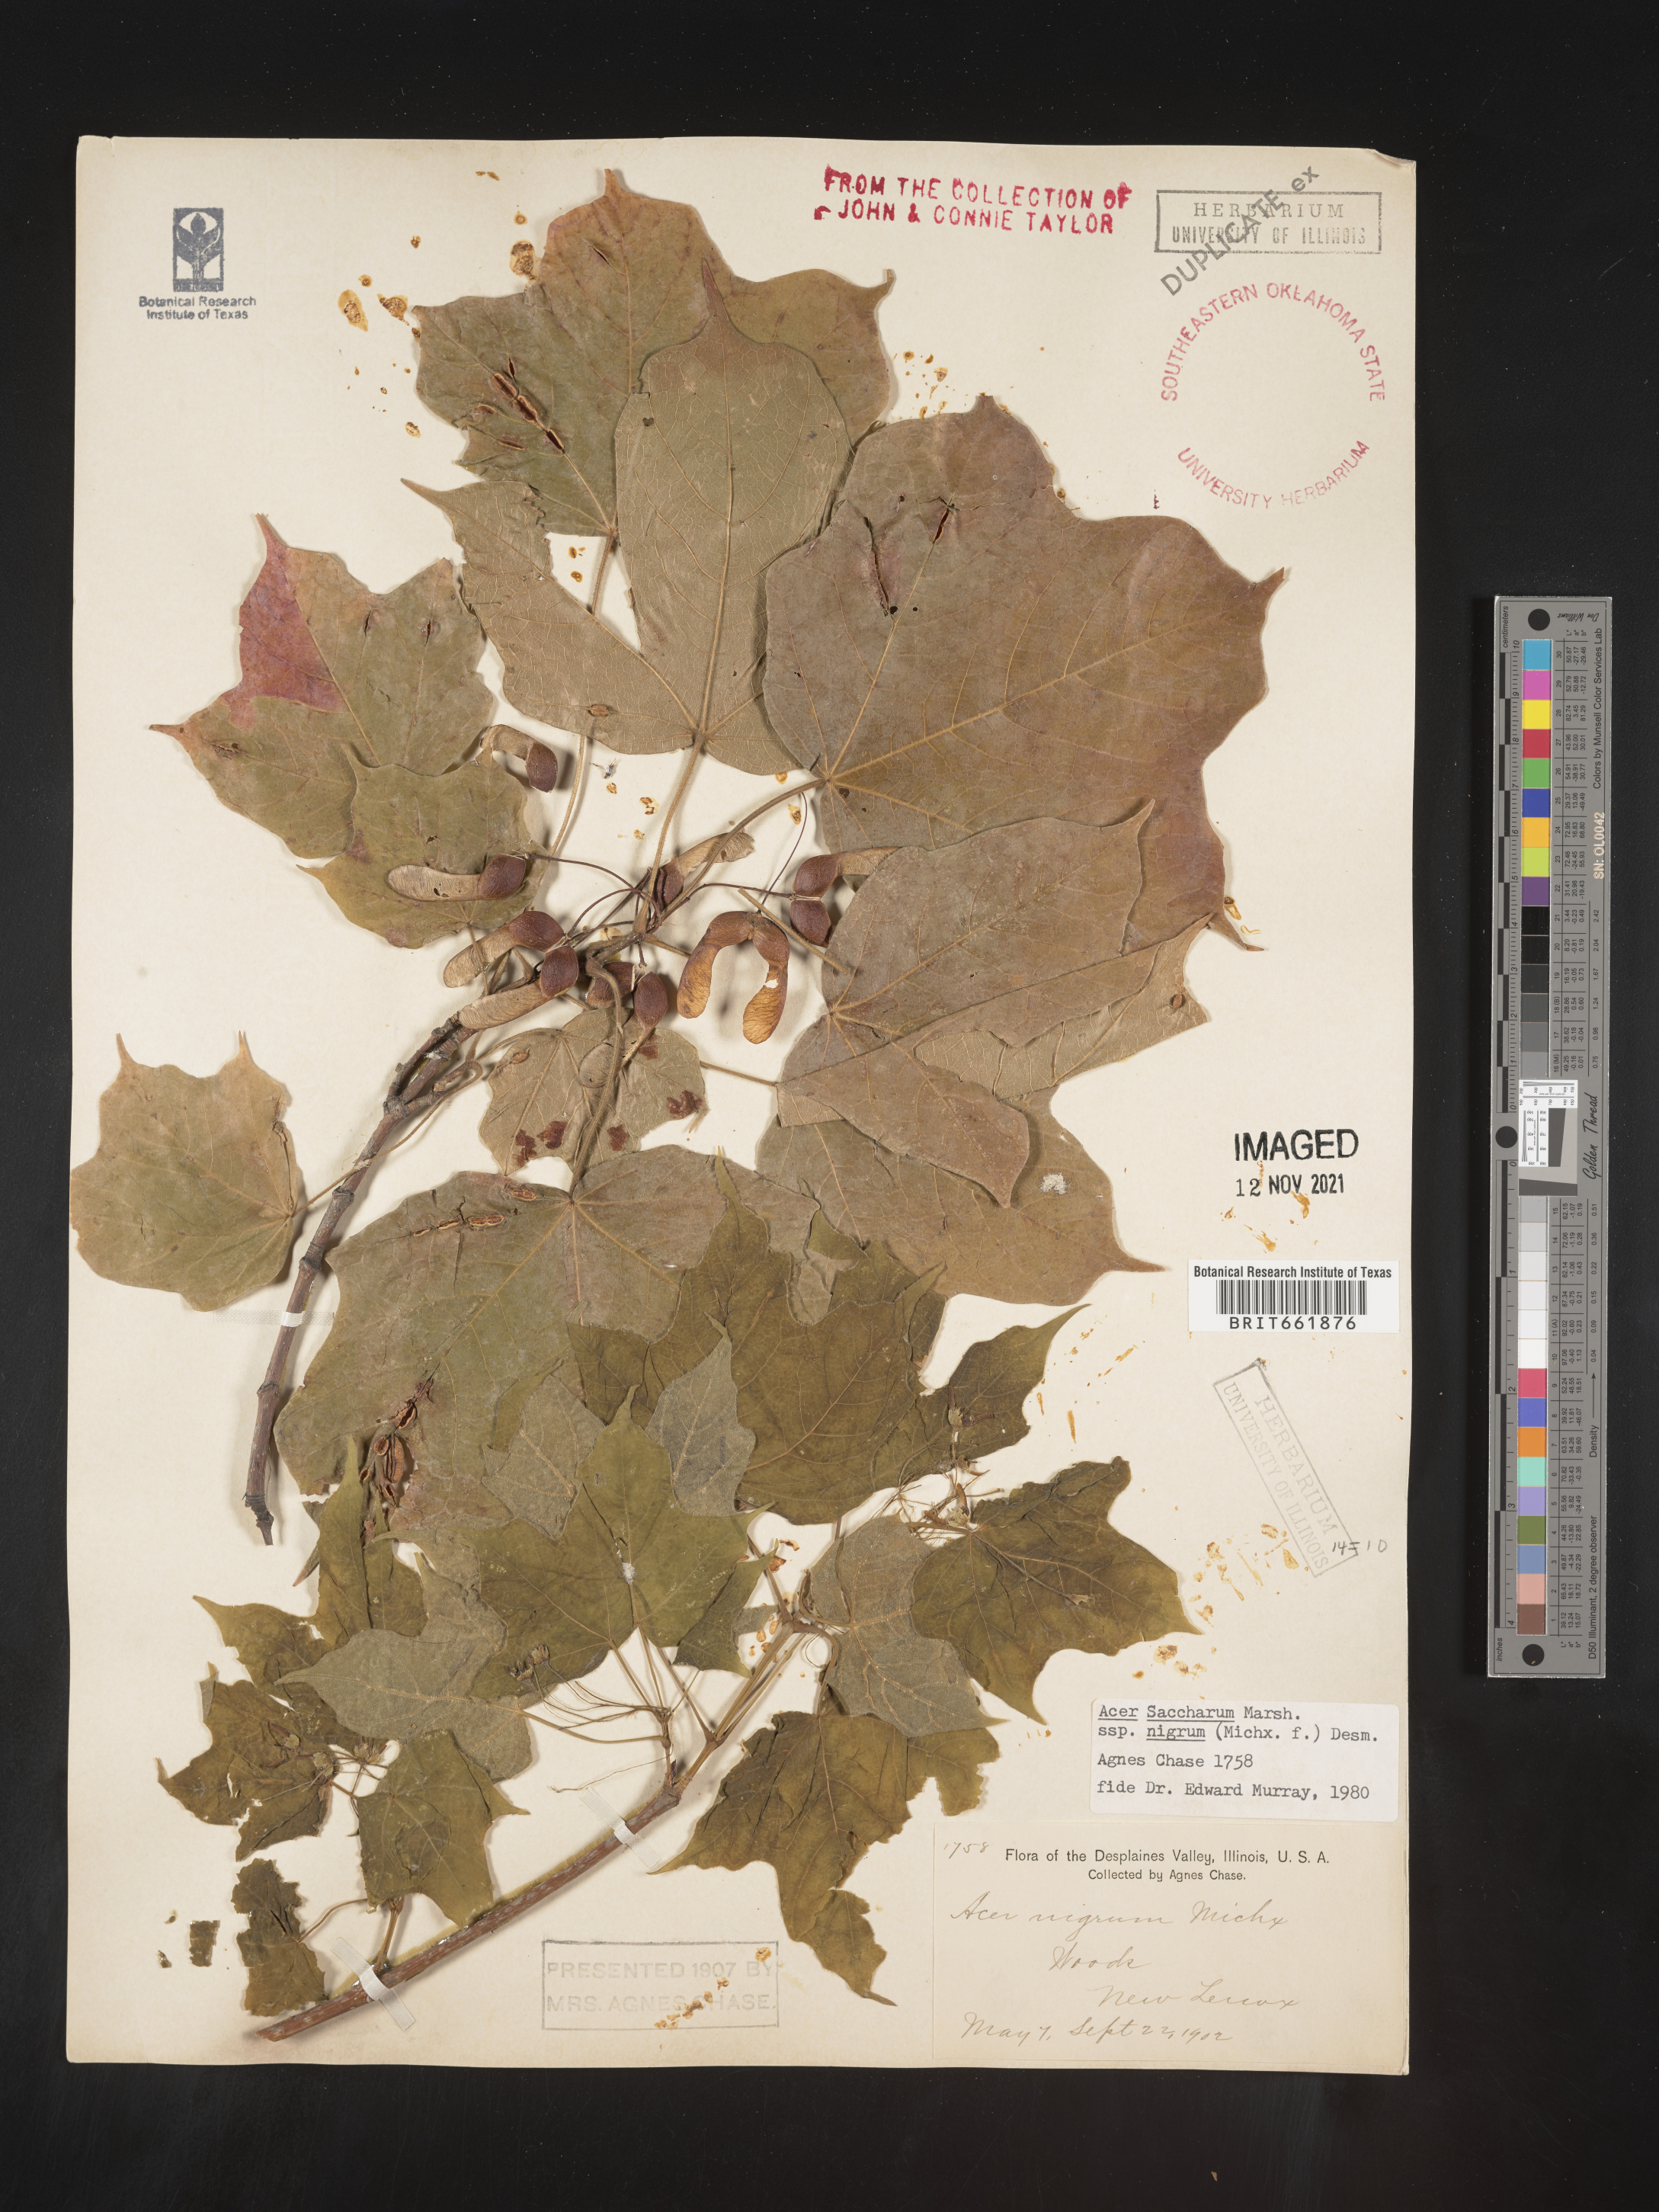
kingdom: Plantae
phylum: Tracheophyta
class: Magnoliopsida
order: Sapindales
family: Sapindaceae
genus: Acer
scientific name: Acer nigrum
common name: Black maple
